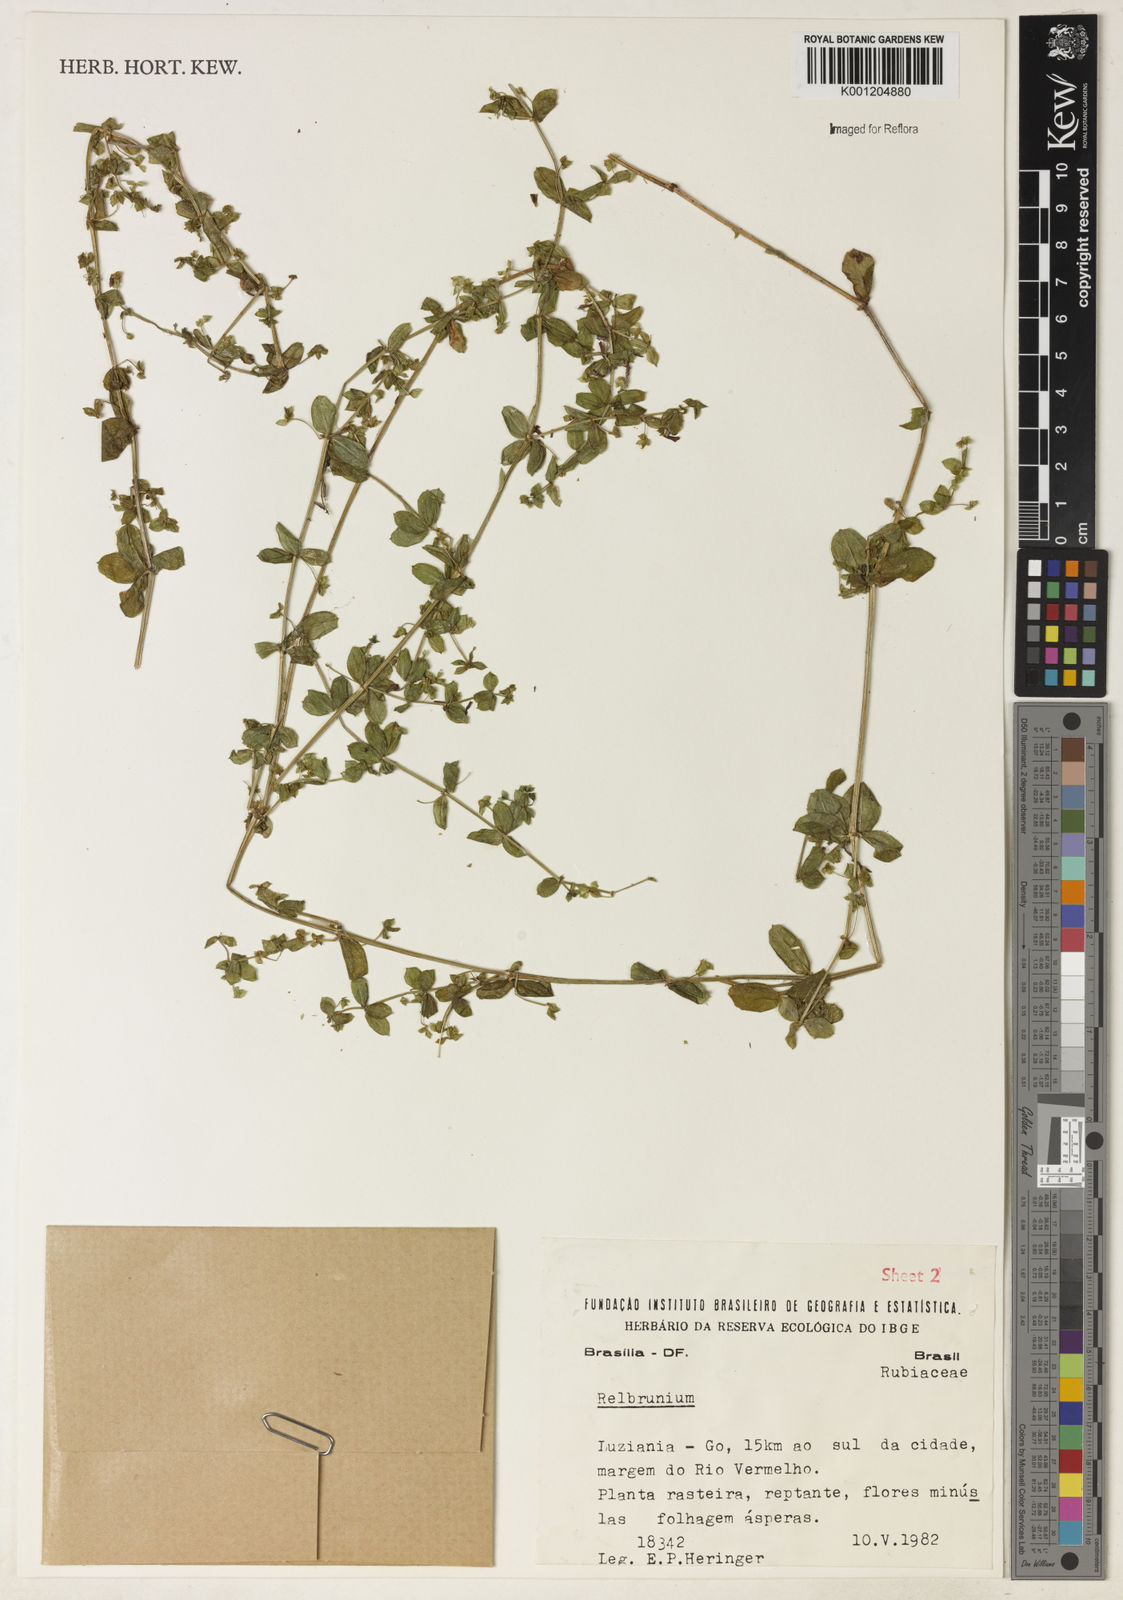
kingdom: Plantae
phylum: Tracheophyta
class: Magnoliopsida
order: Gentianales
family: Rubiaceae
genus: Galium
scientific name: Galium
